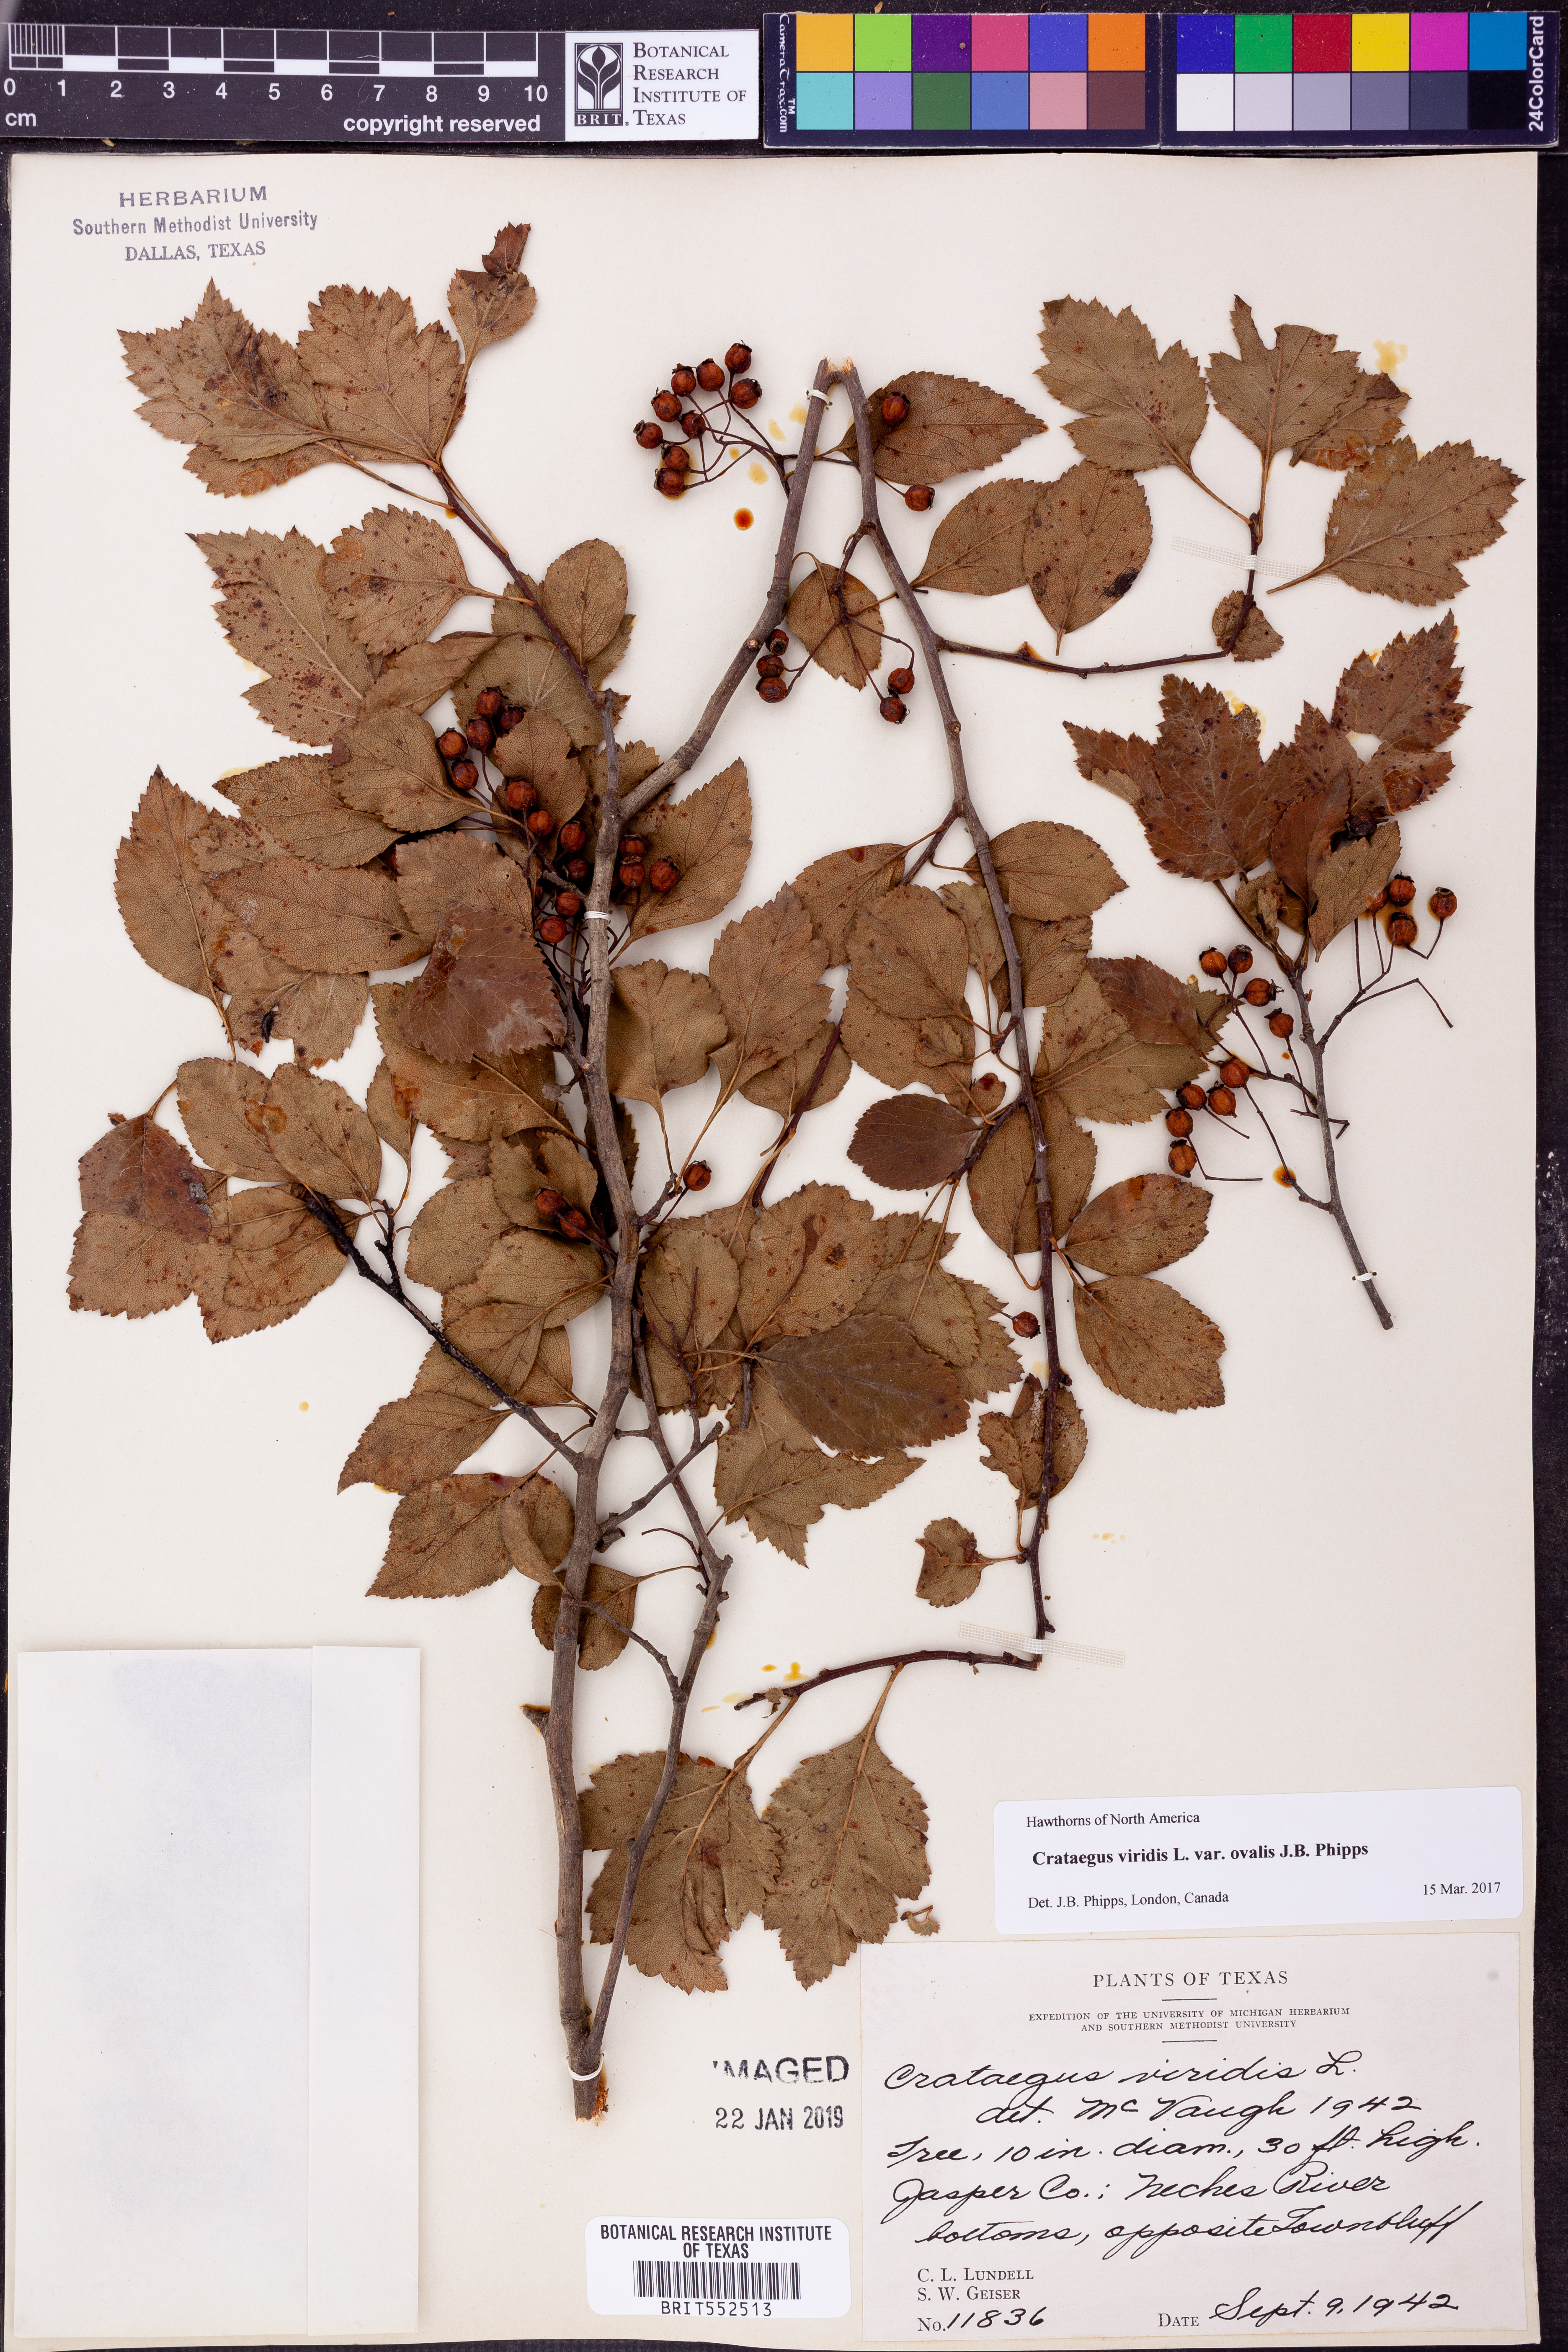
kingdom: Plantae
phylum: Tracheophyta
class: Magnoliopsida
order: Rosales
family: Rosaceae
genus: Crataegus
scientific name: Crataegus viridis
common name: Southernthorn
